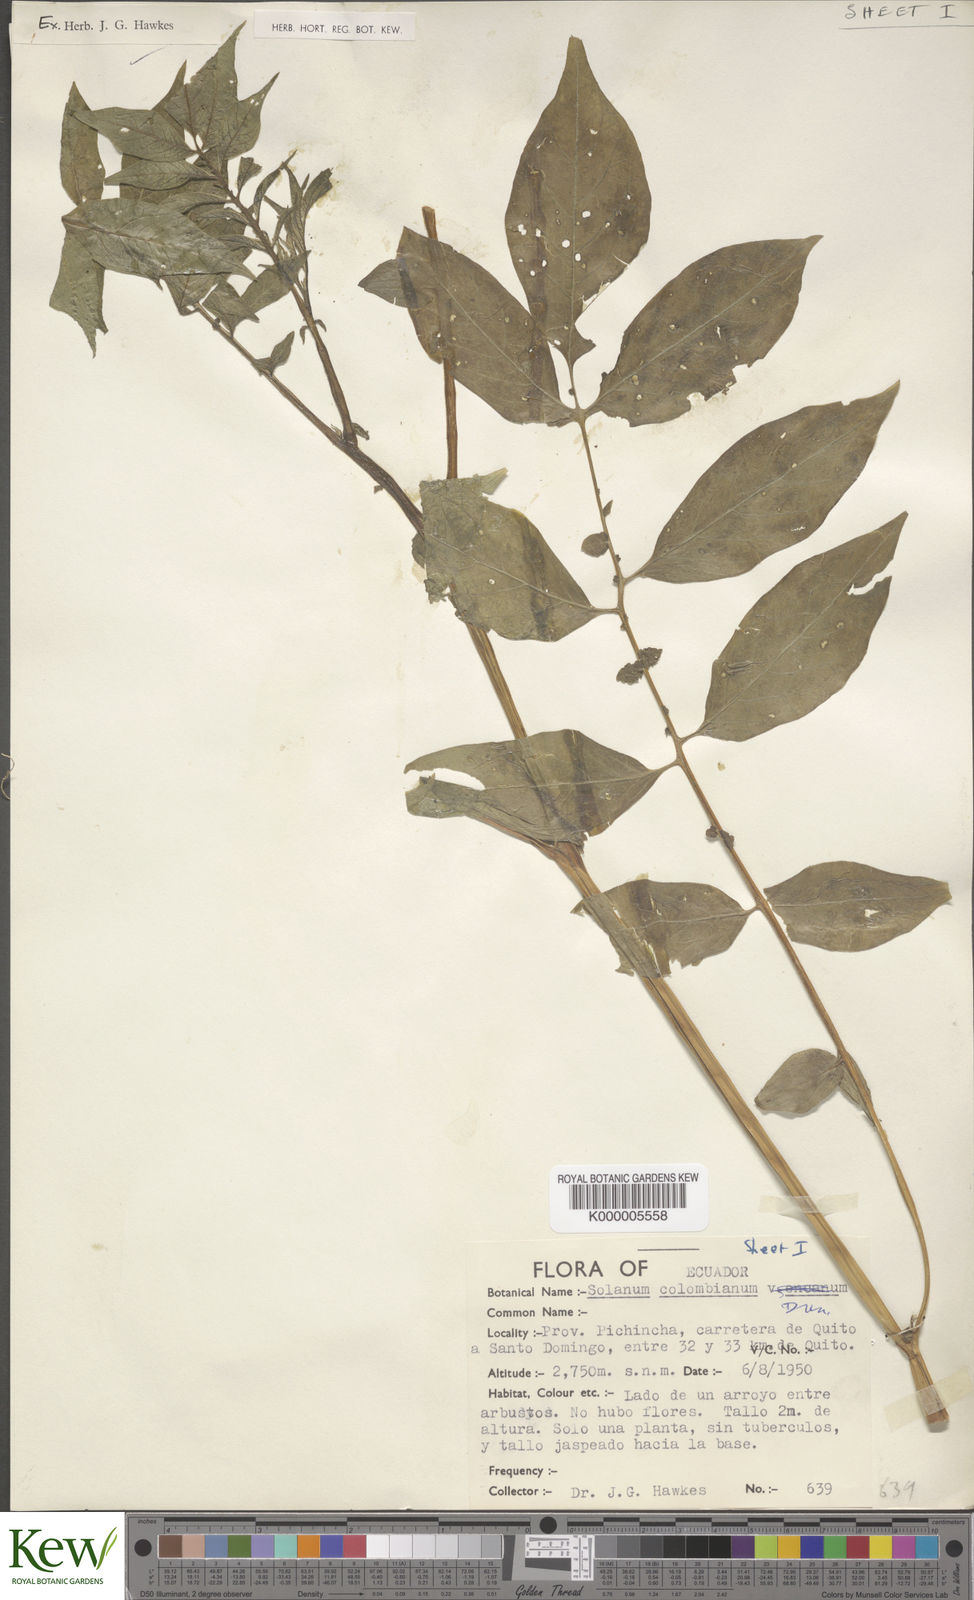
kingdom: Plantae
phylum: Tracheophyta
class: Magnoliopsida
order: Solanales
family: Solanaceae
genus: Solanum
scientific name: Solanum colombianum
